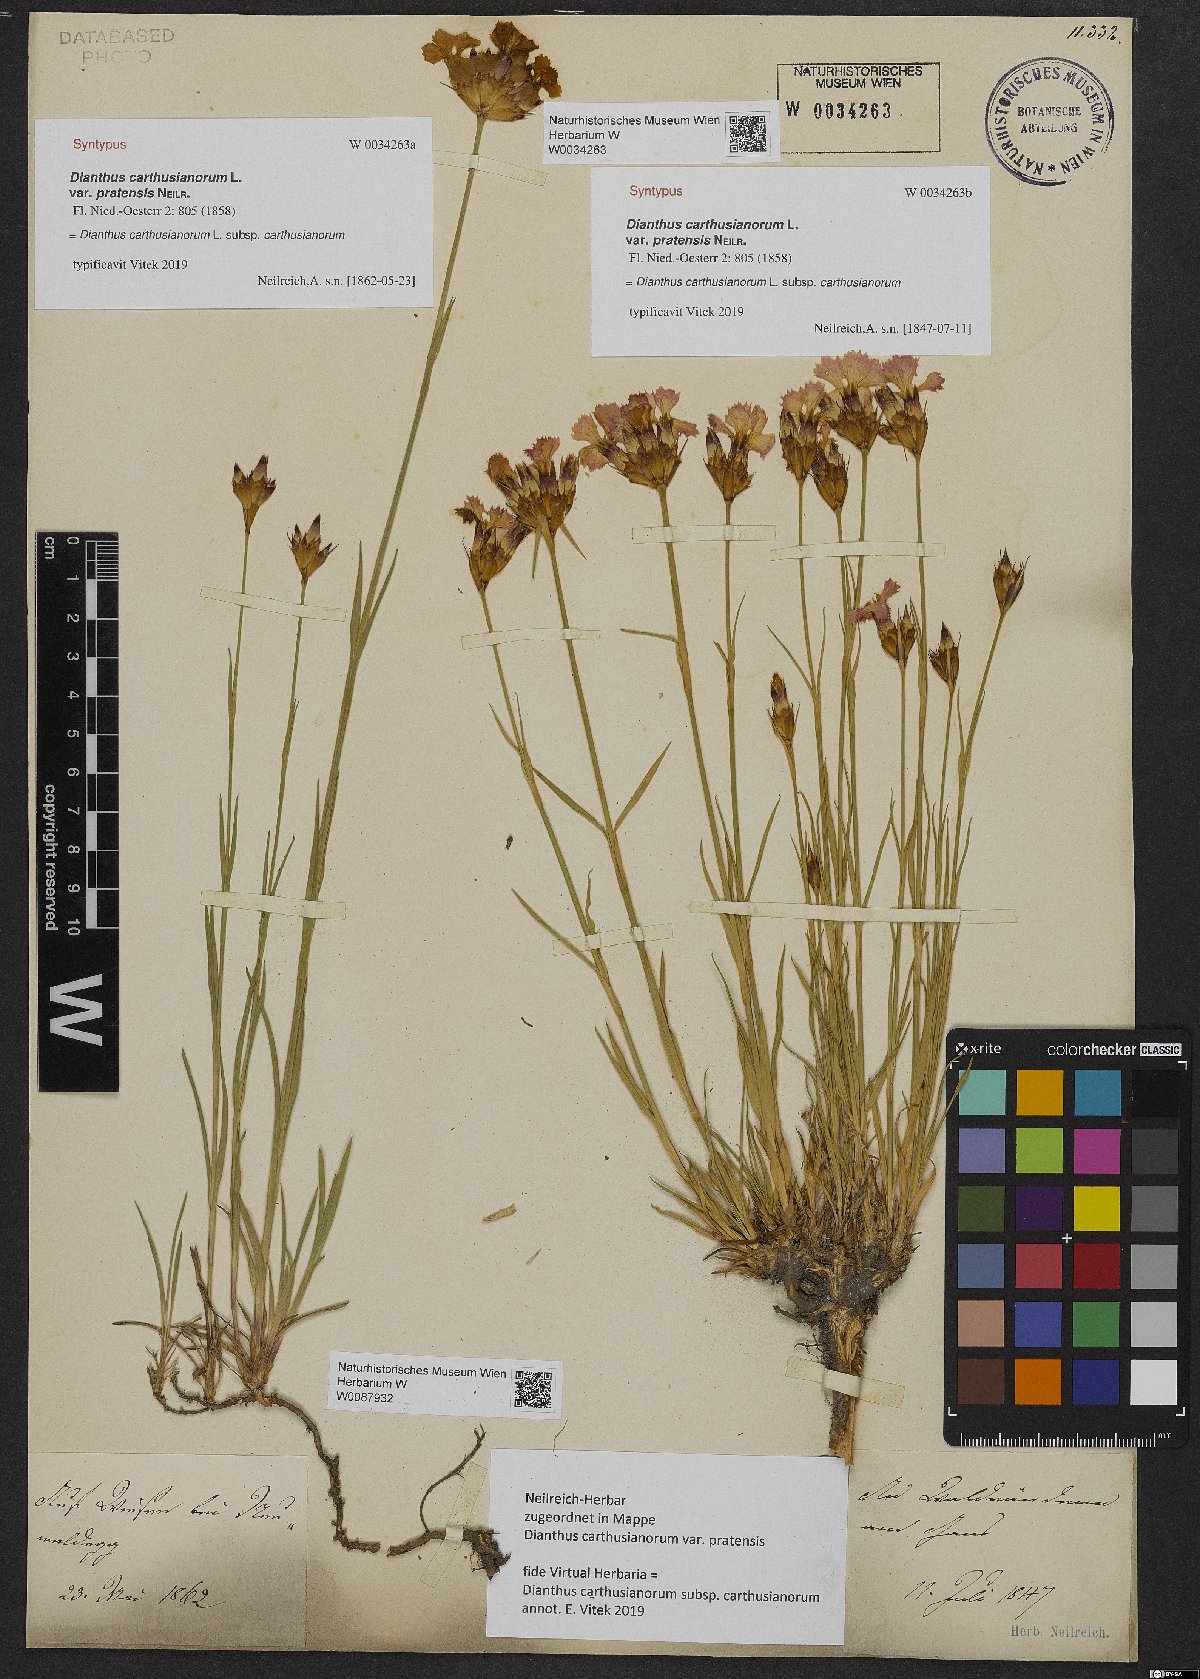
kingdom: Plantae
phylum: Tracheophyta
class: Magnoliopsida
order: Caryophyllales
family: Caryophyllaceae
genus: Dianthus
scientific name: Dianthus carthusianorum
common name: Carthusian pink
